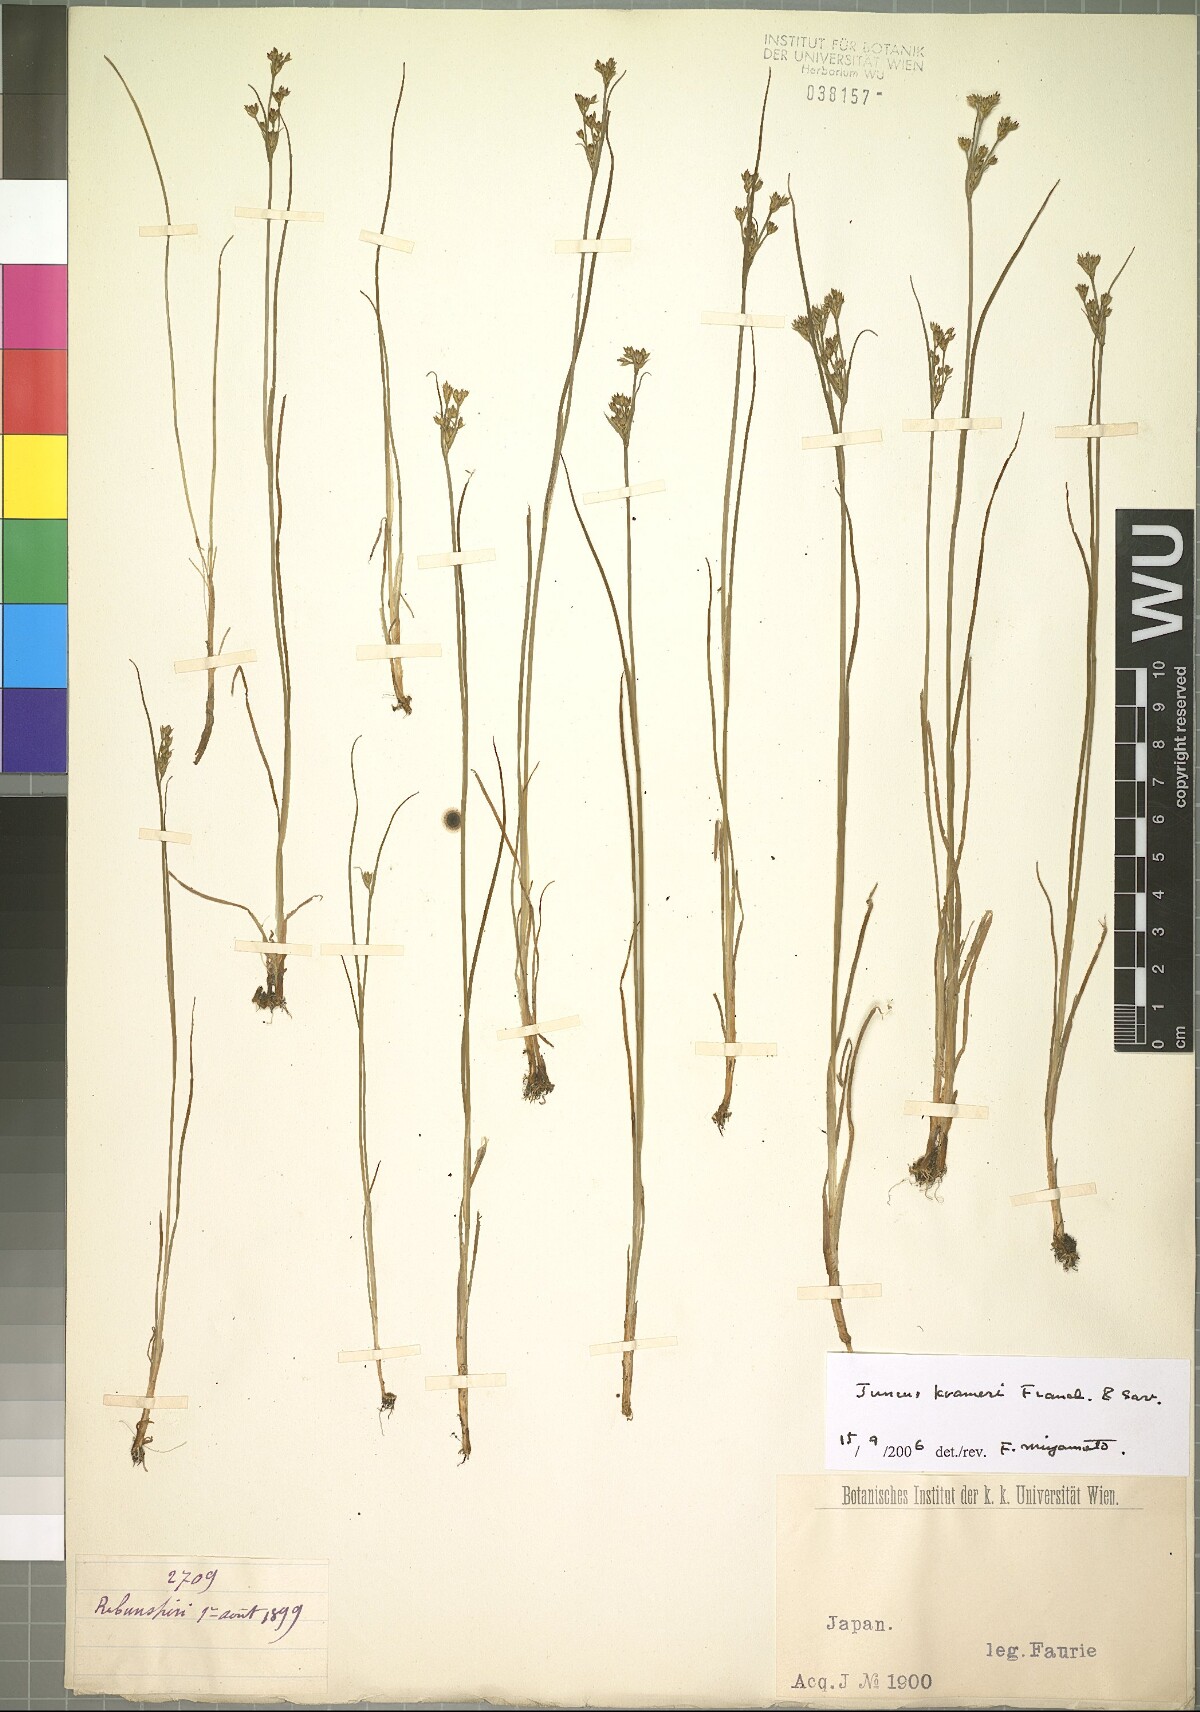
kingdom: Plantae
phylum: Tracheophyta
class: Liliopsida
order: Poales
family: Juncaceae
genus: Juncus
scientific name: Juncus krameri
